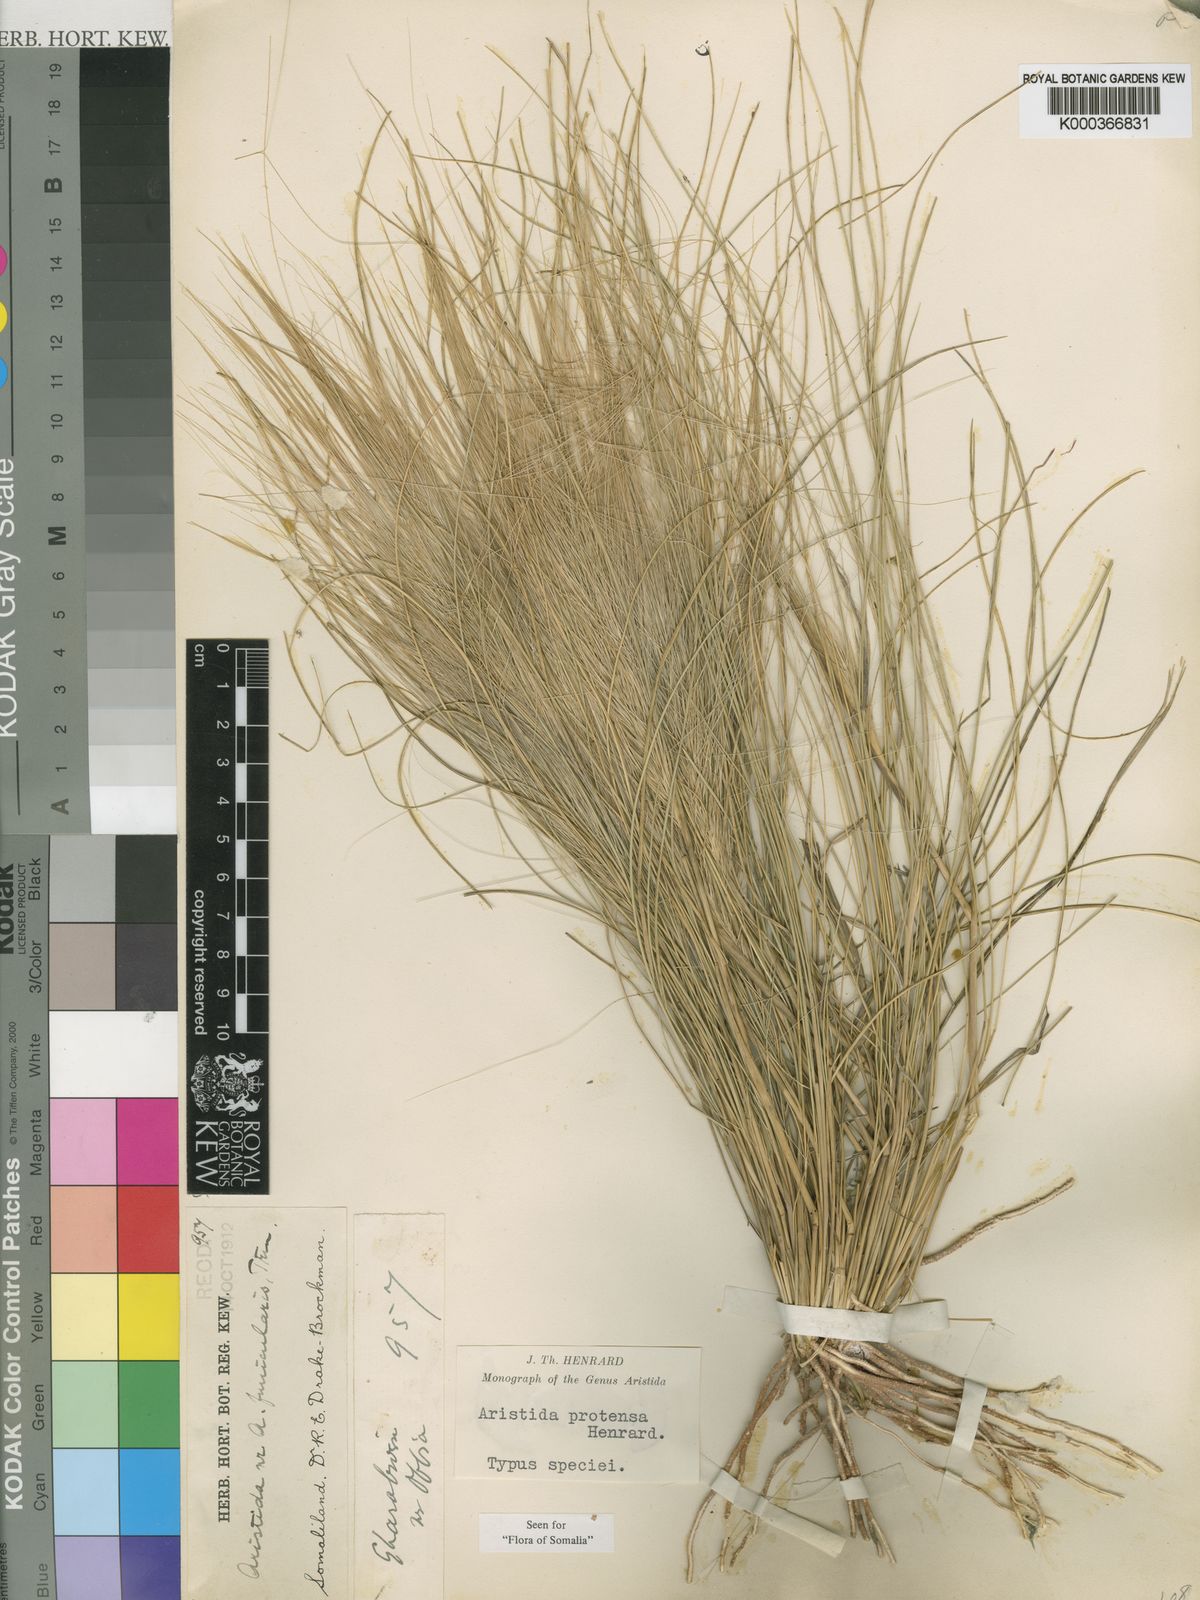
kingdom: Plantae
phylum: Tracheophyta
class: Liliopsida
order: Poales
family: Poaceae
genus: Aristida
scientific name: Aristida protensa
